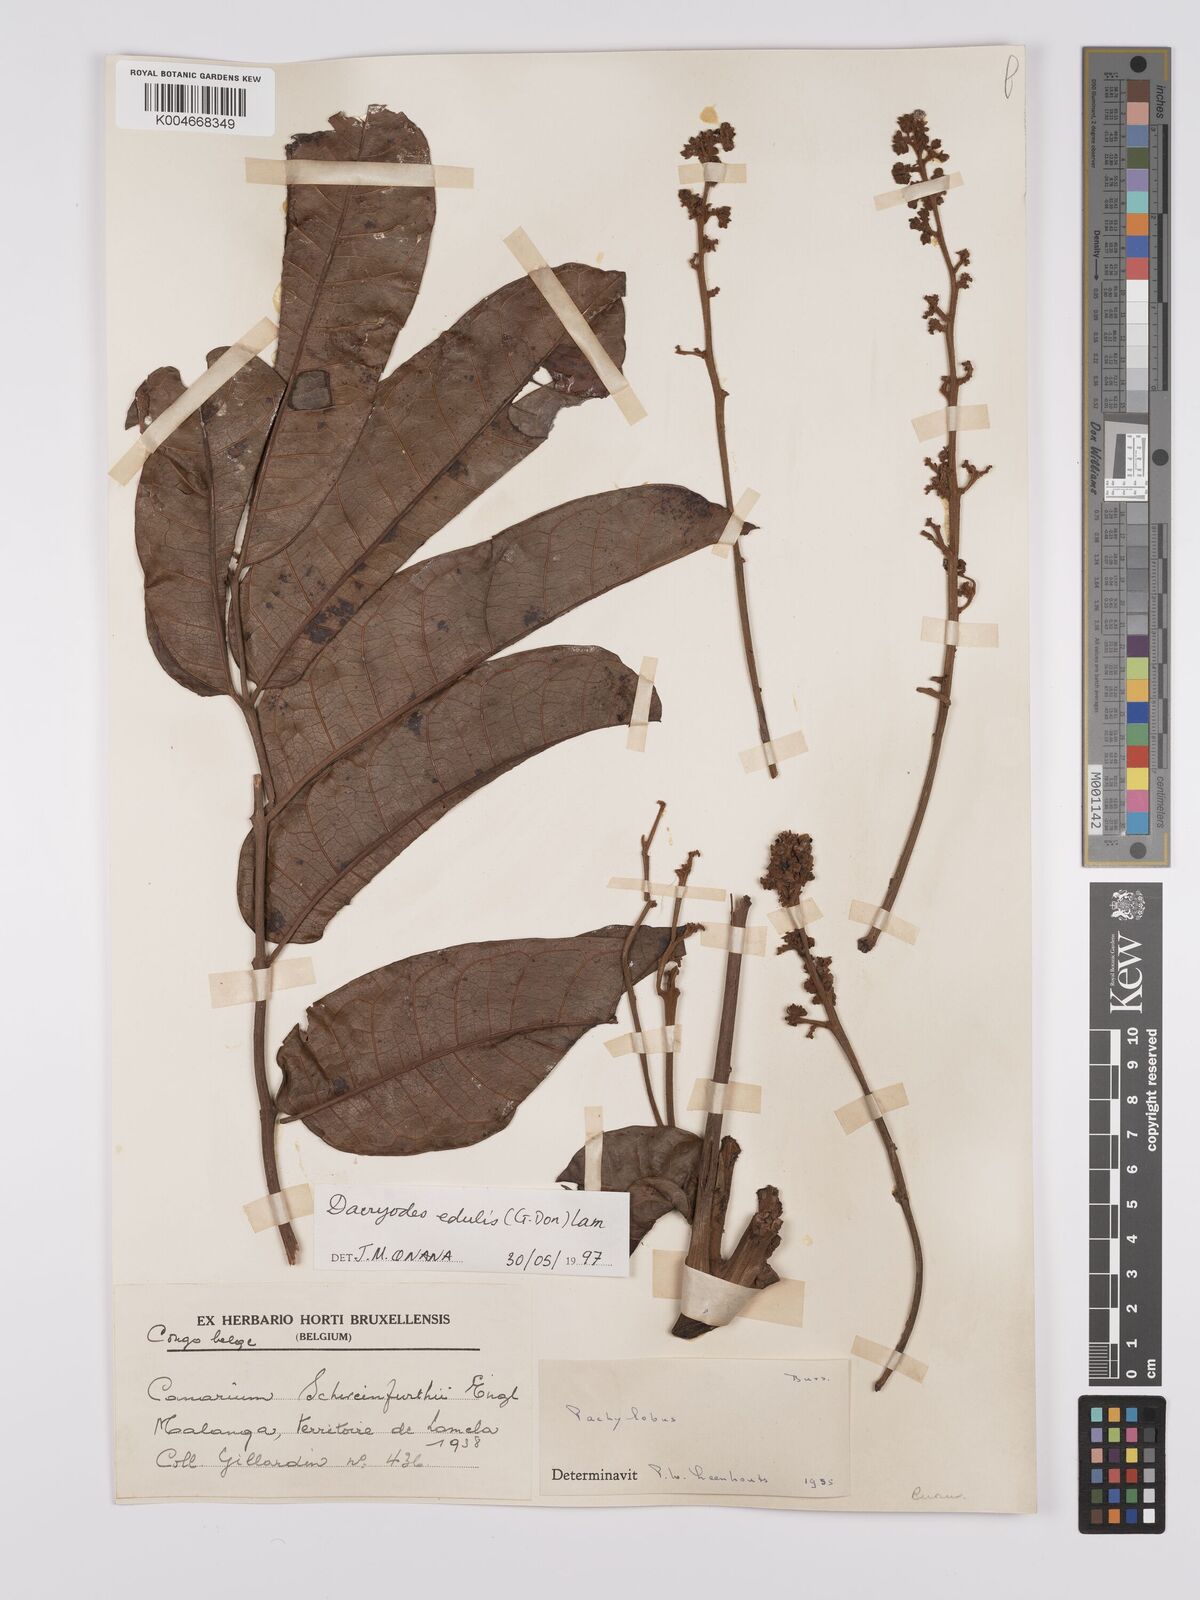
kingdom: Plantae
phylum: Tracheophyta
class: Magnoliopsida
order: Sapindales
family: Burseraceae
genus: Pachylobus
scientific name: Pachylobus edulis
